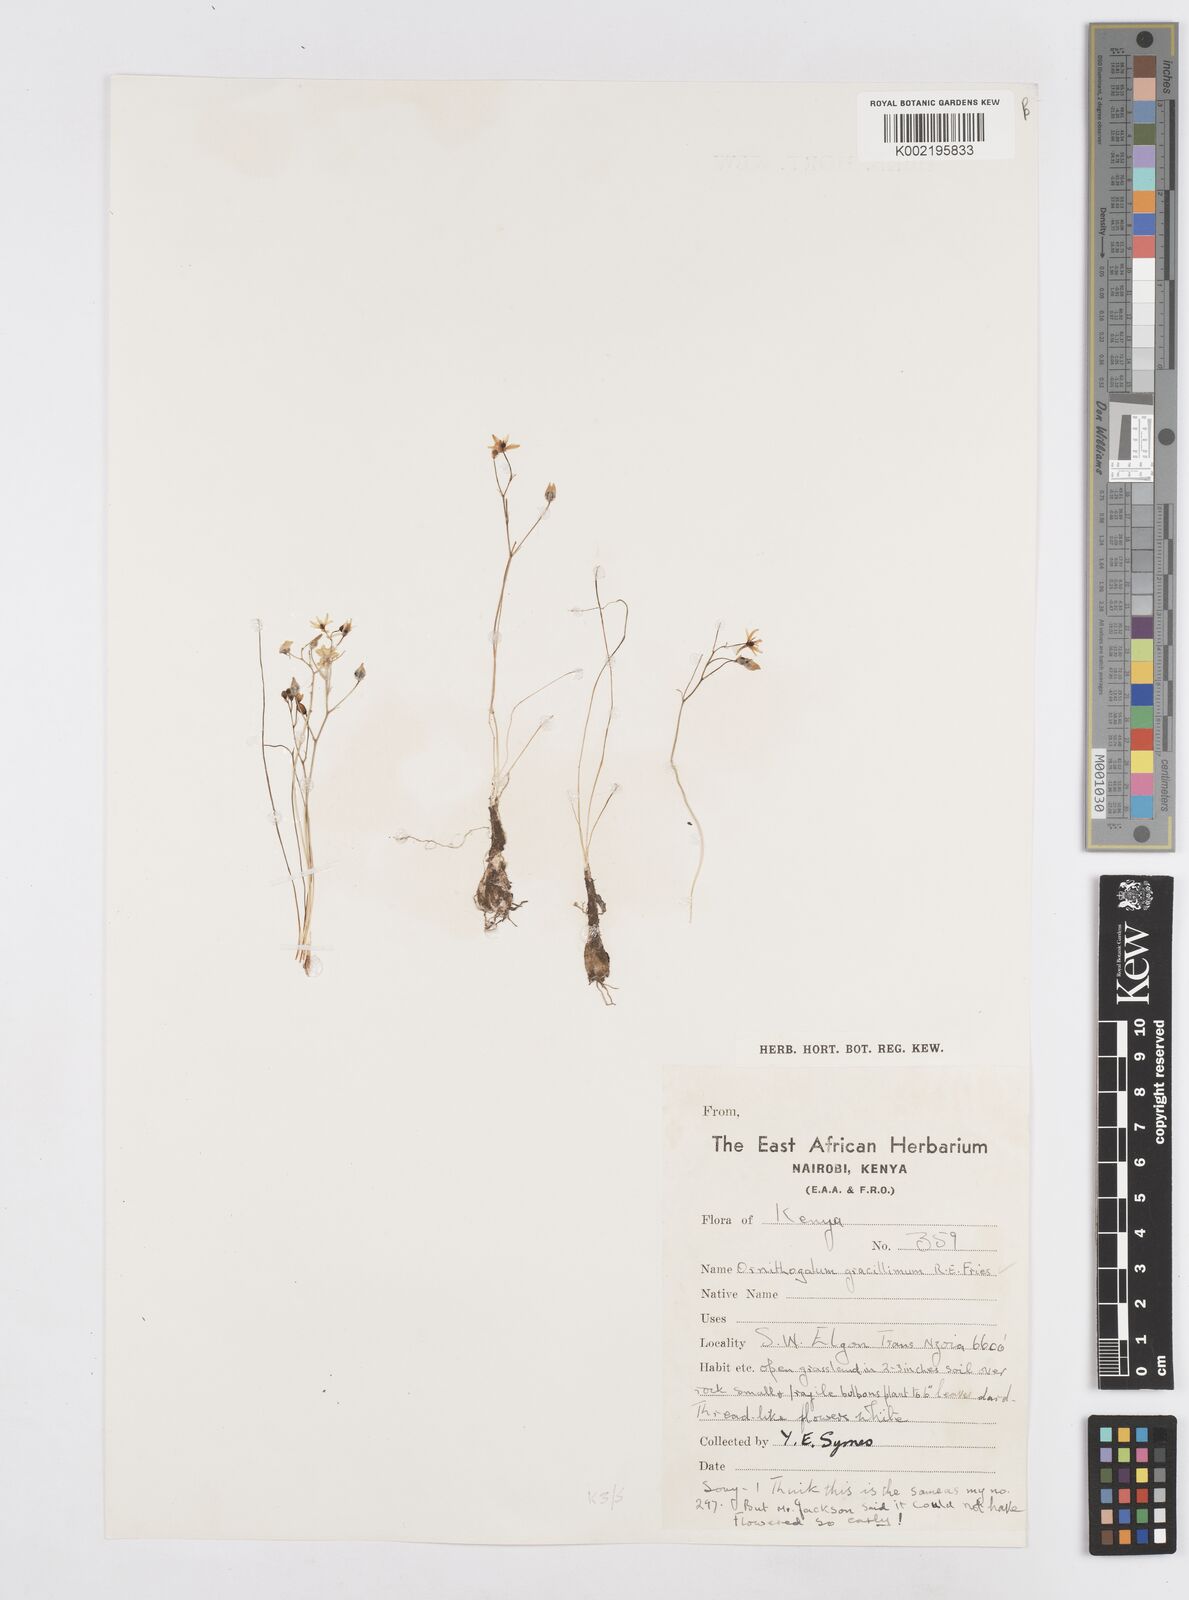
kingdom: Plantae
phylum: Tracheophyta
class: Liliopsida
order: Asparagales
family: Asparagaceae
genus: Ornithogalum
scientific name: Ornithogalum gracillimum
